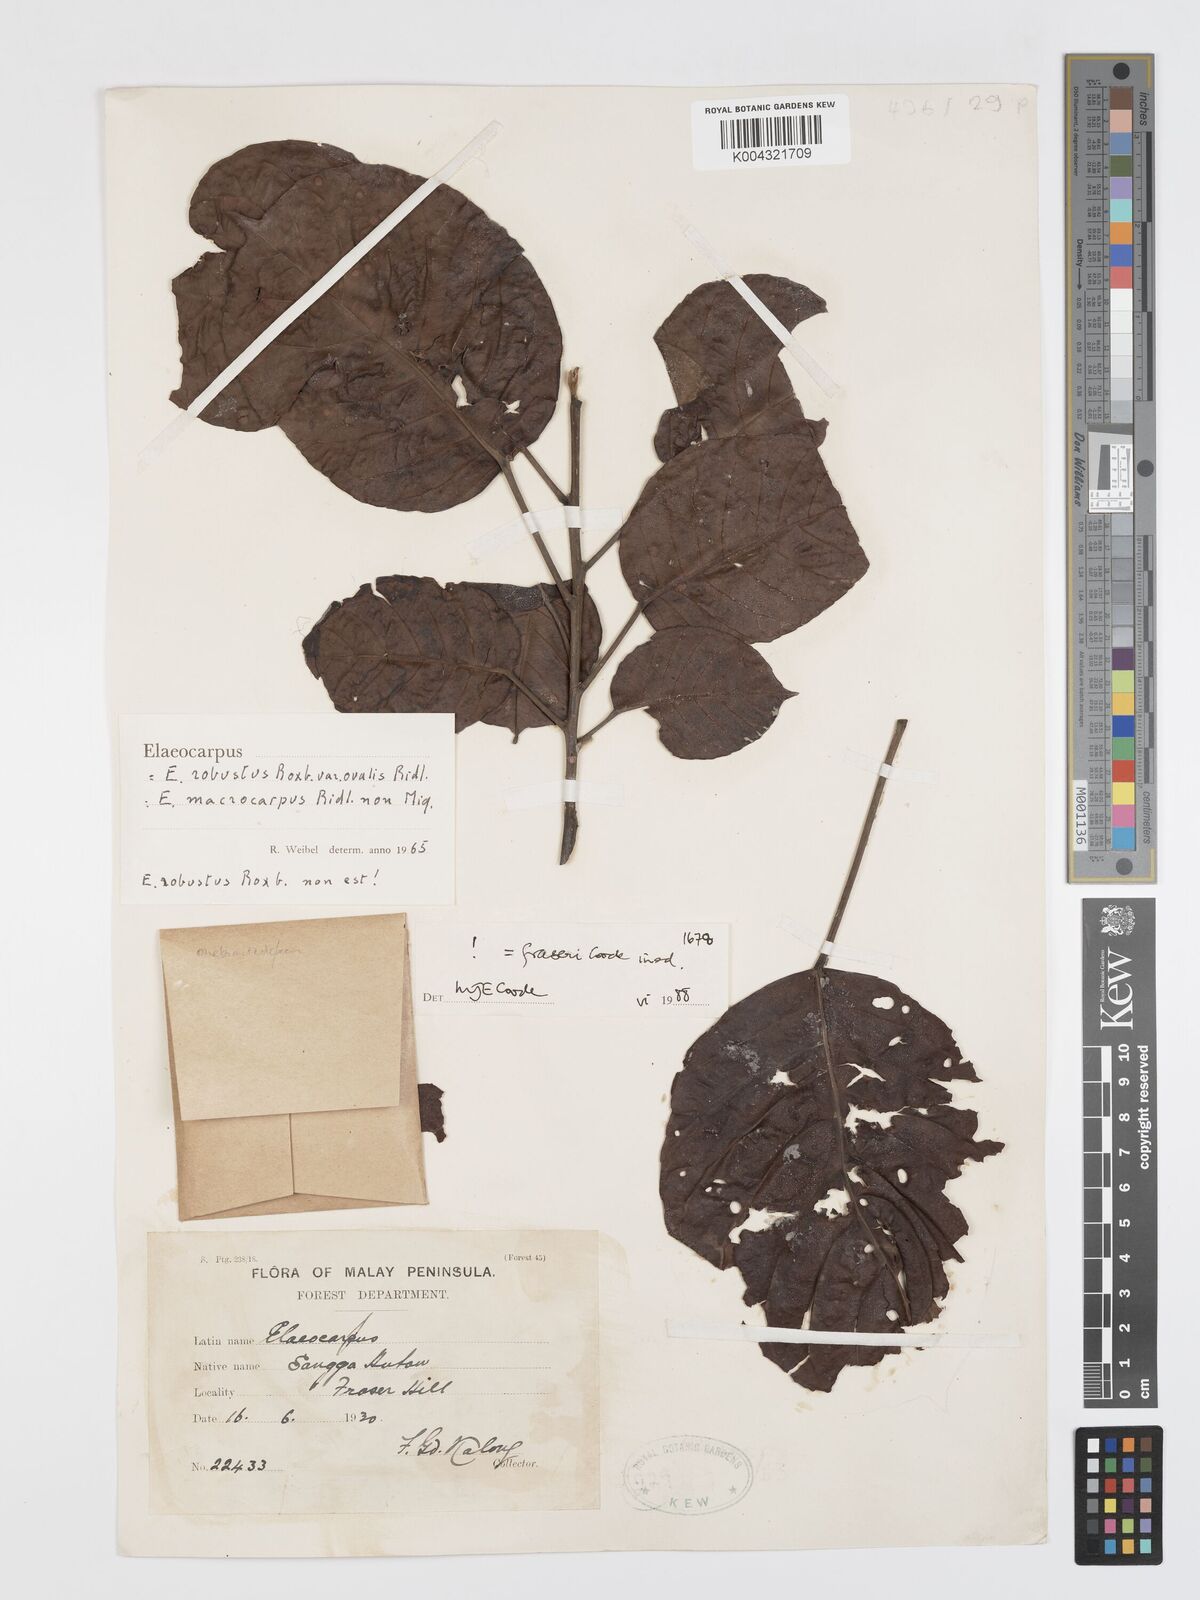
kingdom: Plantae
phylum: Tracheophyta
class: Magnoliopsida
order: Oxalidales
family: Elaeocarpaceae
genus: Elaeocarpus
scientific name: Elaeocarpus robustus
